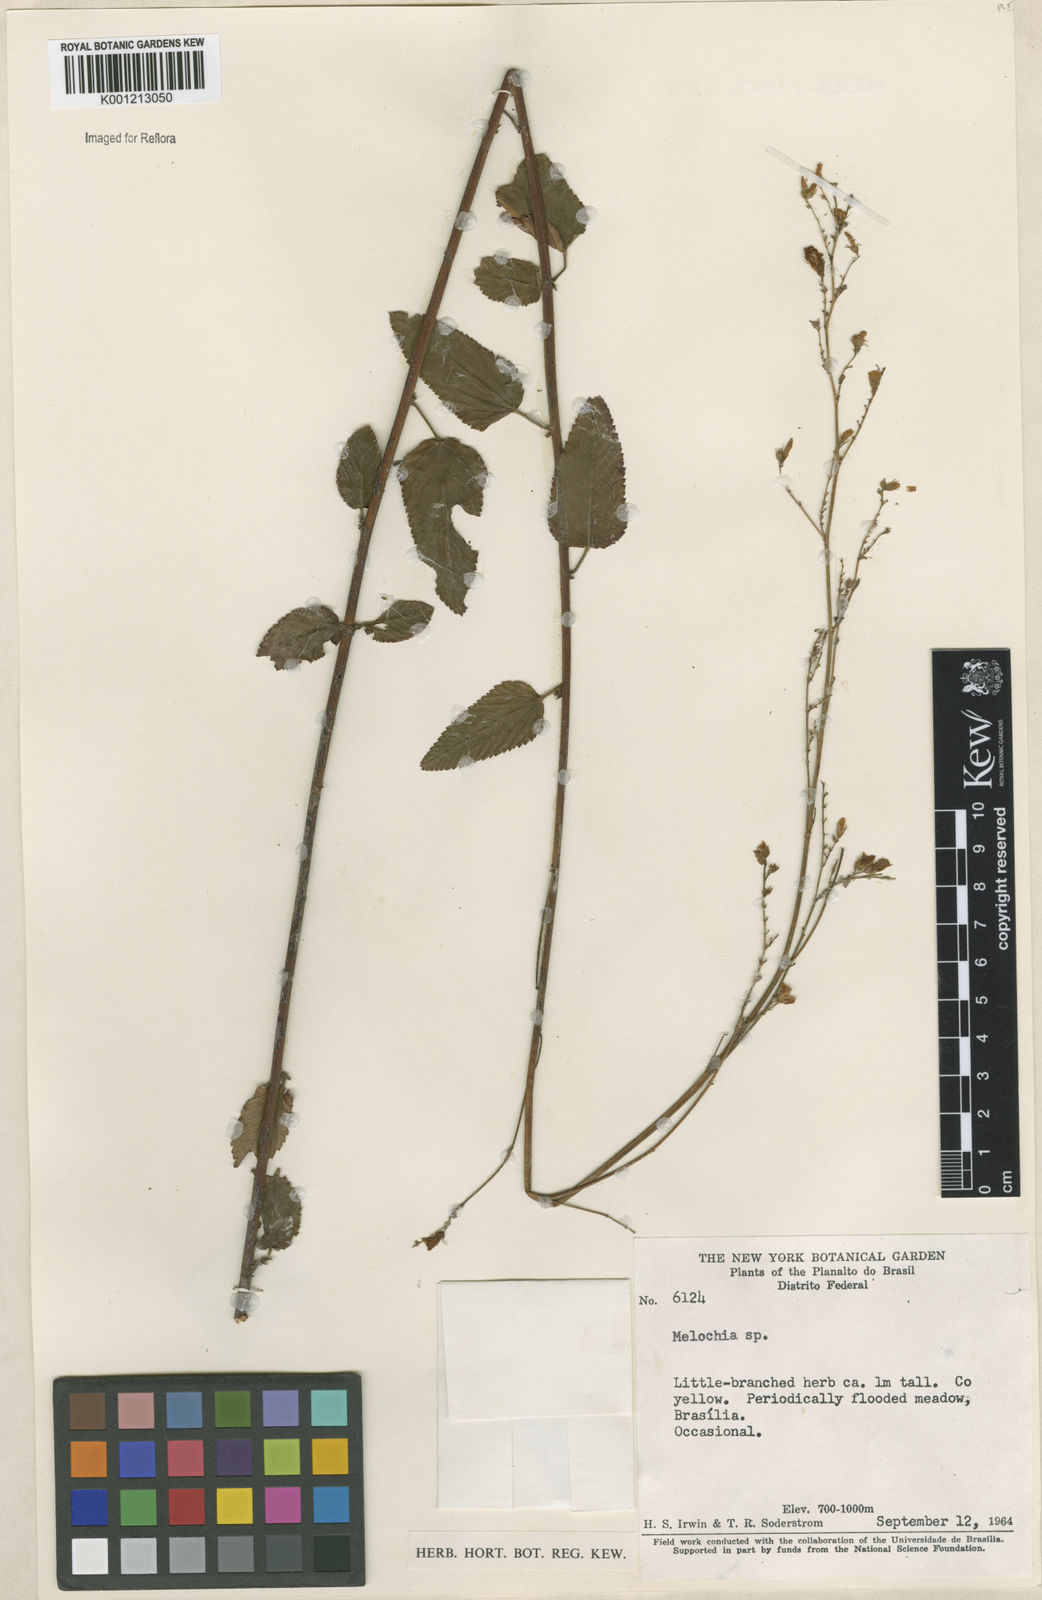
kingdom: Plantae
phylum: Tracheophyta
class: Magnoliopsida
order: Malvales
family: Malvaceae
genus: Melochia
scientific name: Melochia
